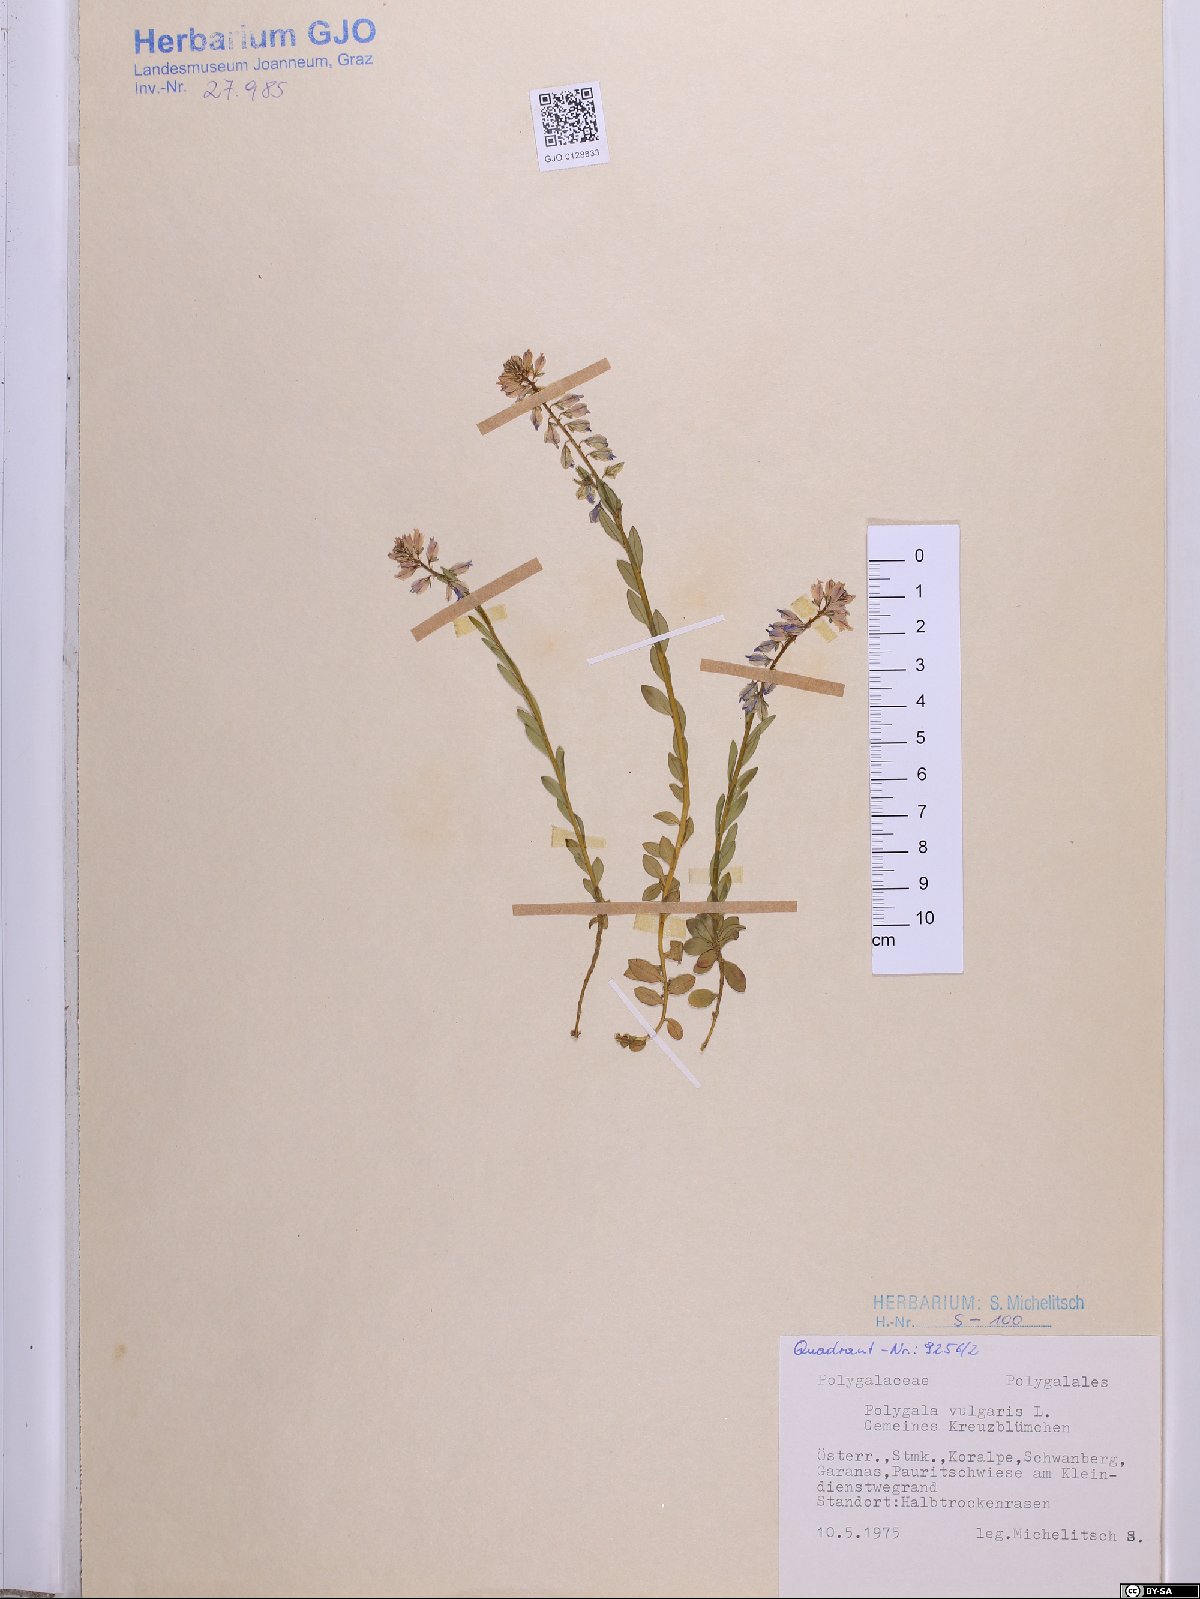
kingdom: Plantae
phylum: Tracheophyta
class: Magnoliopsida
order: Fabales
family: Polygalaceae
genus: Polygala
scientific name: Polygala vulgaris
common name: Common milkwort
